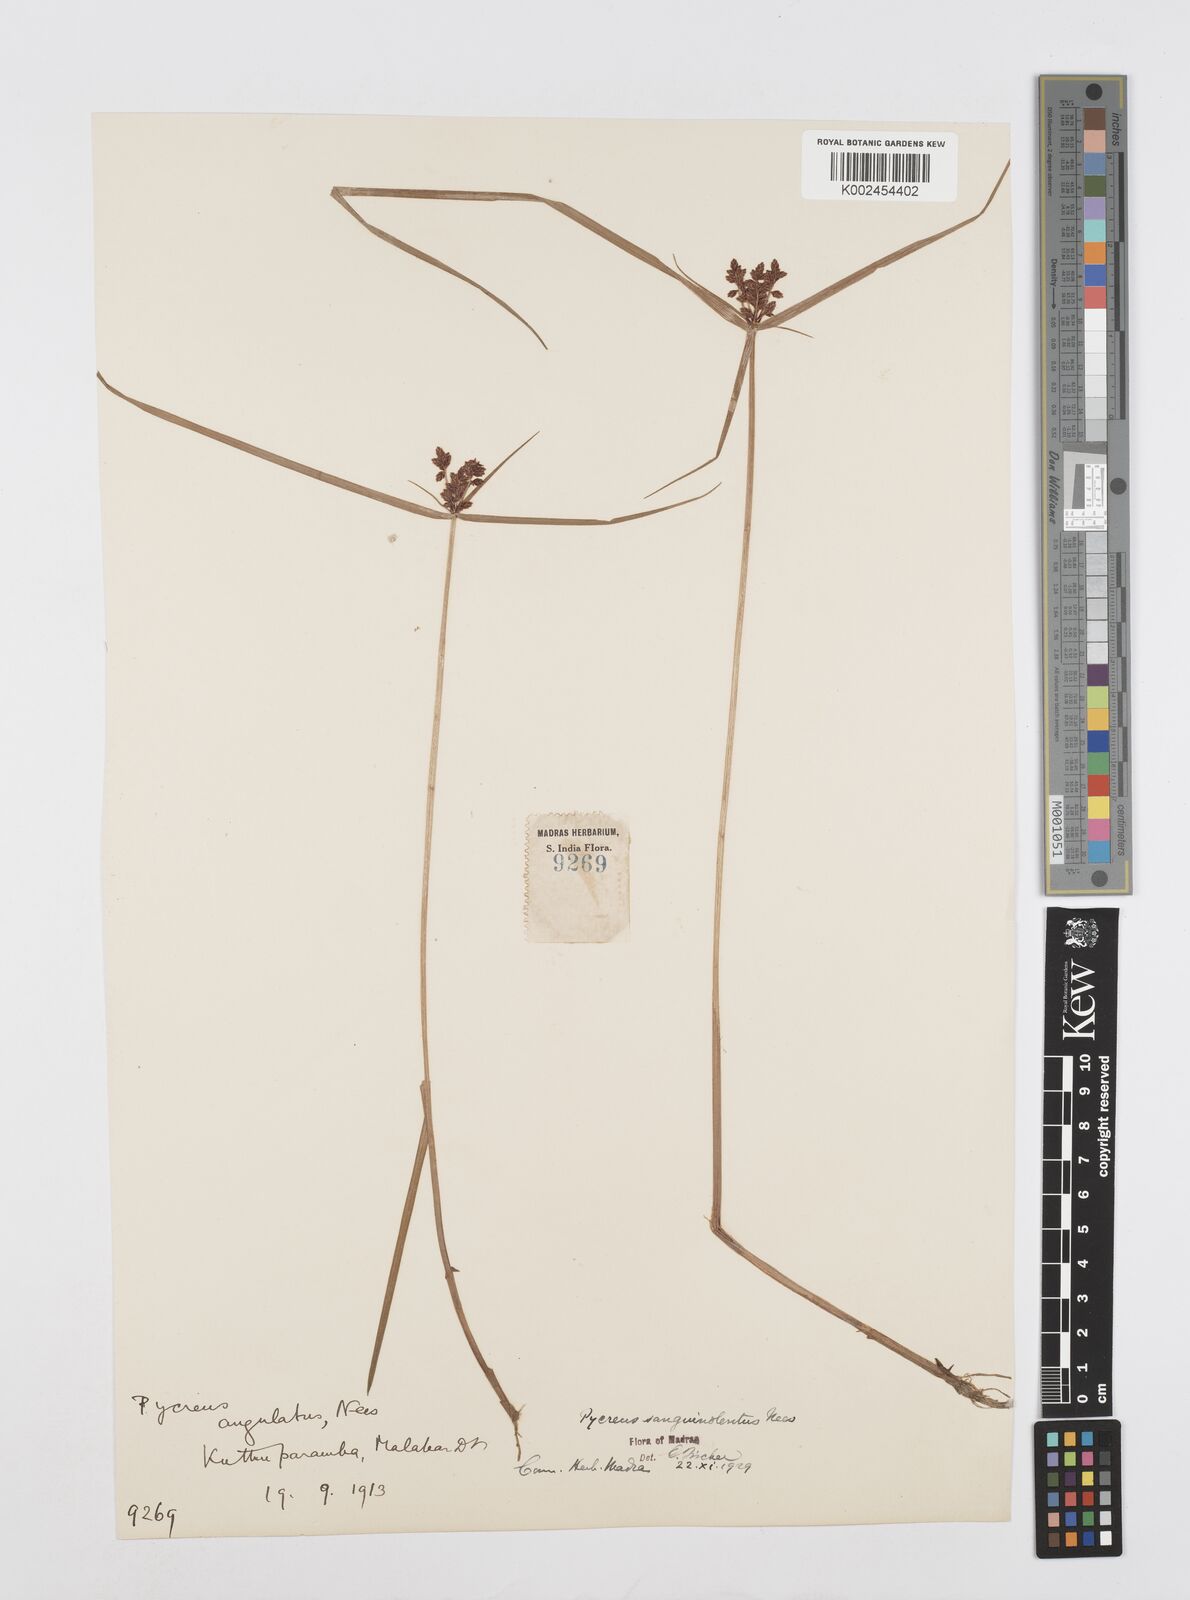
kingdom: Plantae
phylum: Tracheophyta
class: Liliopsida
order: Poales
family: Cyperaceae
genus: Cyperus
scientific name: Cyperus sanguinolentus
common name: Purpleglume flatsedge
